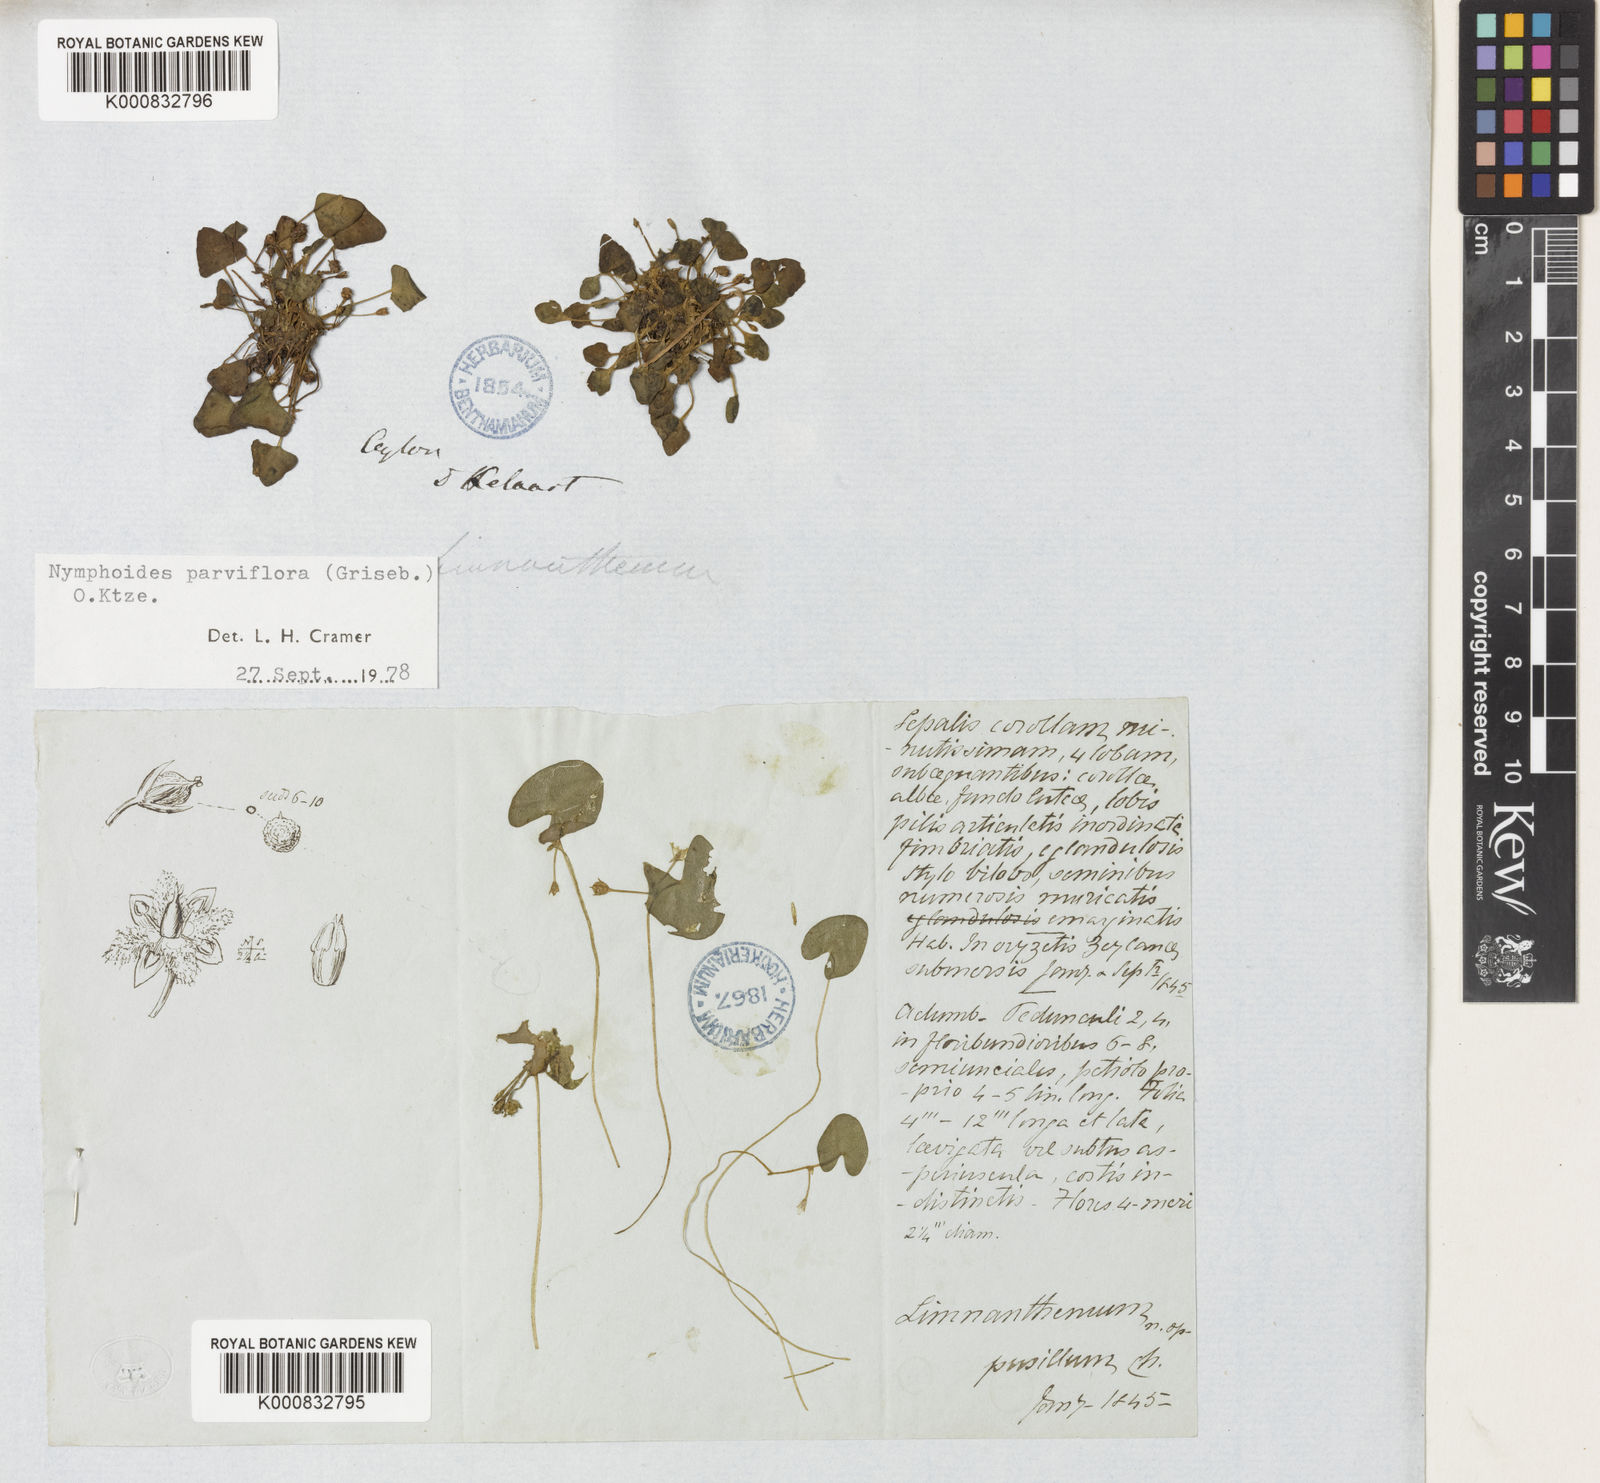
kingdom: Plantae
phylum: Tracheophyta
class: Magnoliopsida
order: Asterales
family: Menyanthaceae
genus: Nymphoides
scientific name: Nymphoides parvifolia
